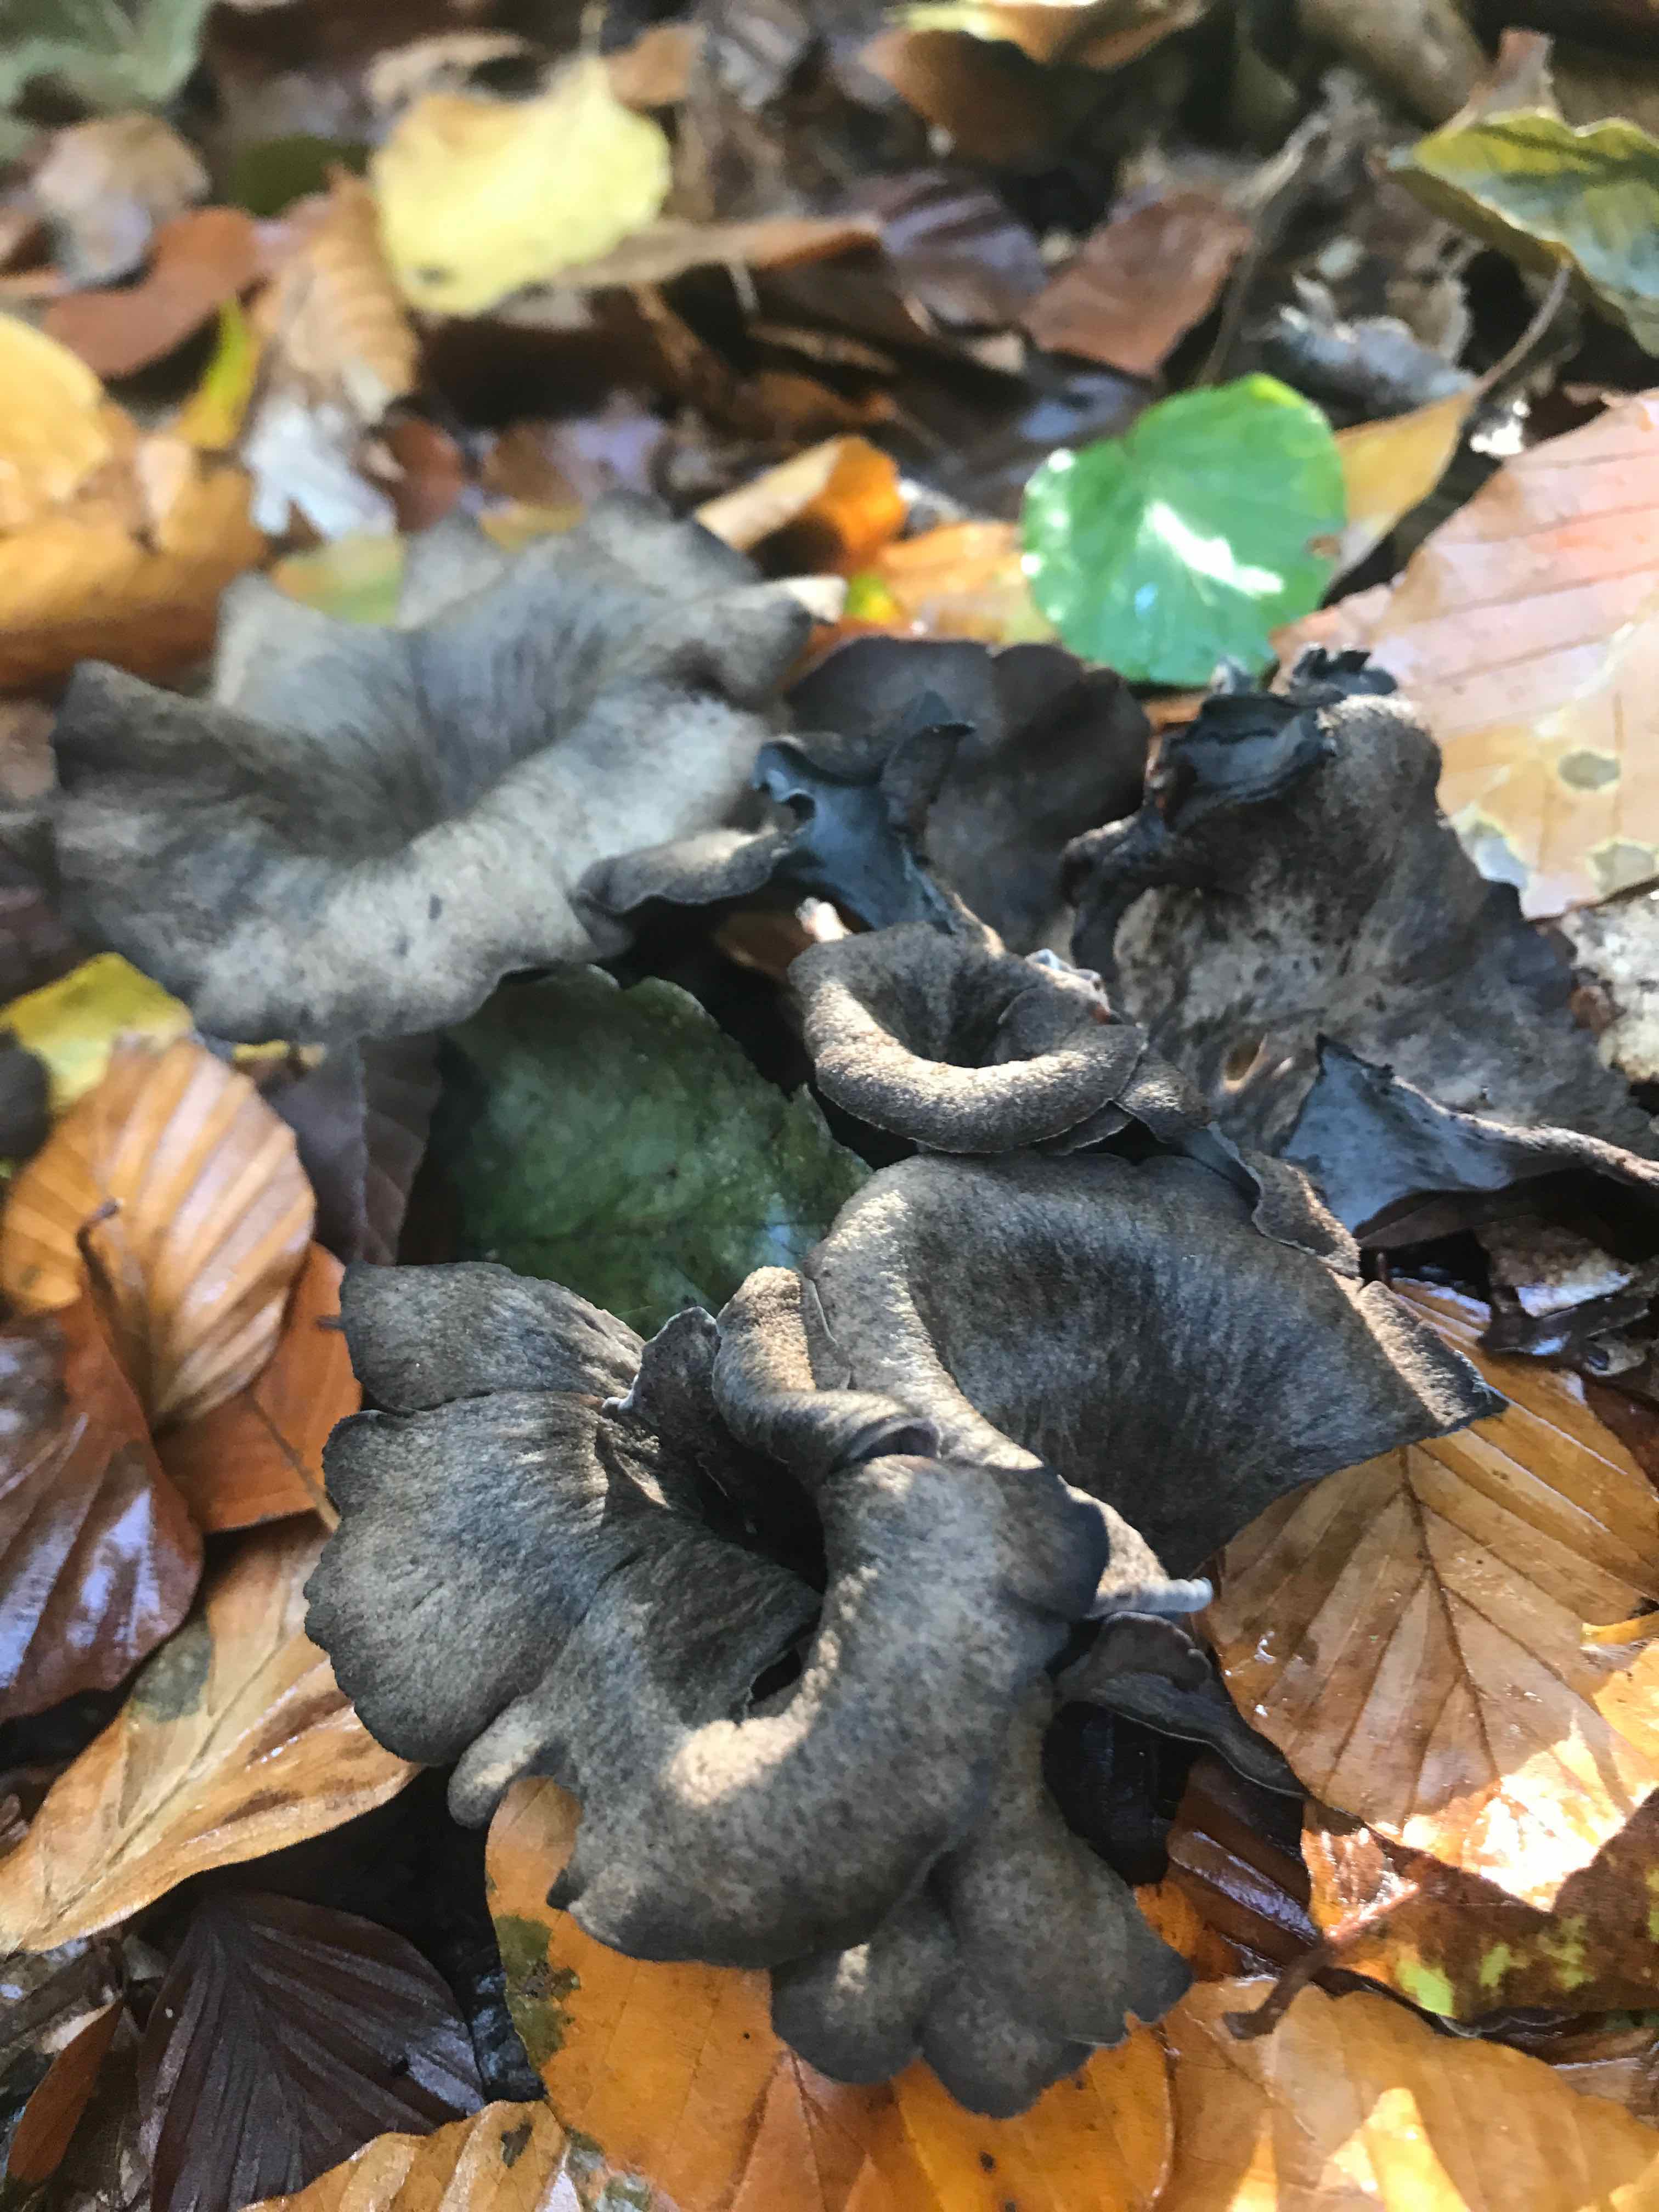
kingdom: Fungi
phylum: Basidiomycota
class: Agaricomycetes
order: Cantharellales
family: Hydnaceae
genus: Craterellus
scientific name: Craterellus cornucopioides
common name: trompetsvamp
